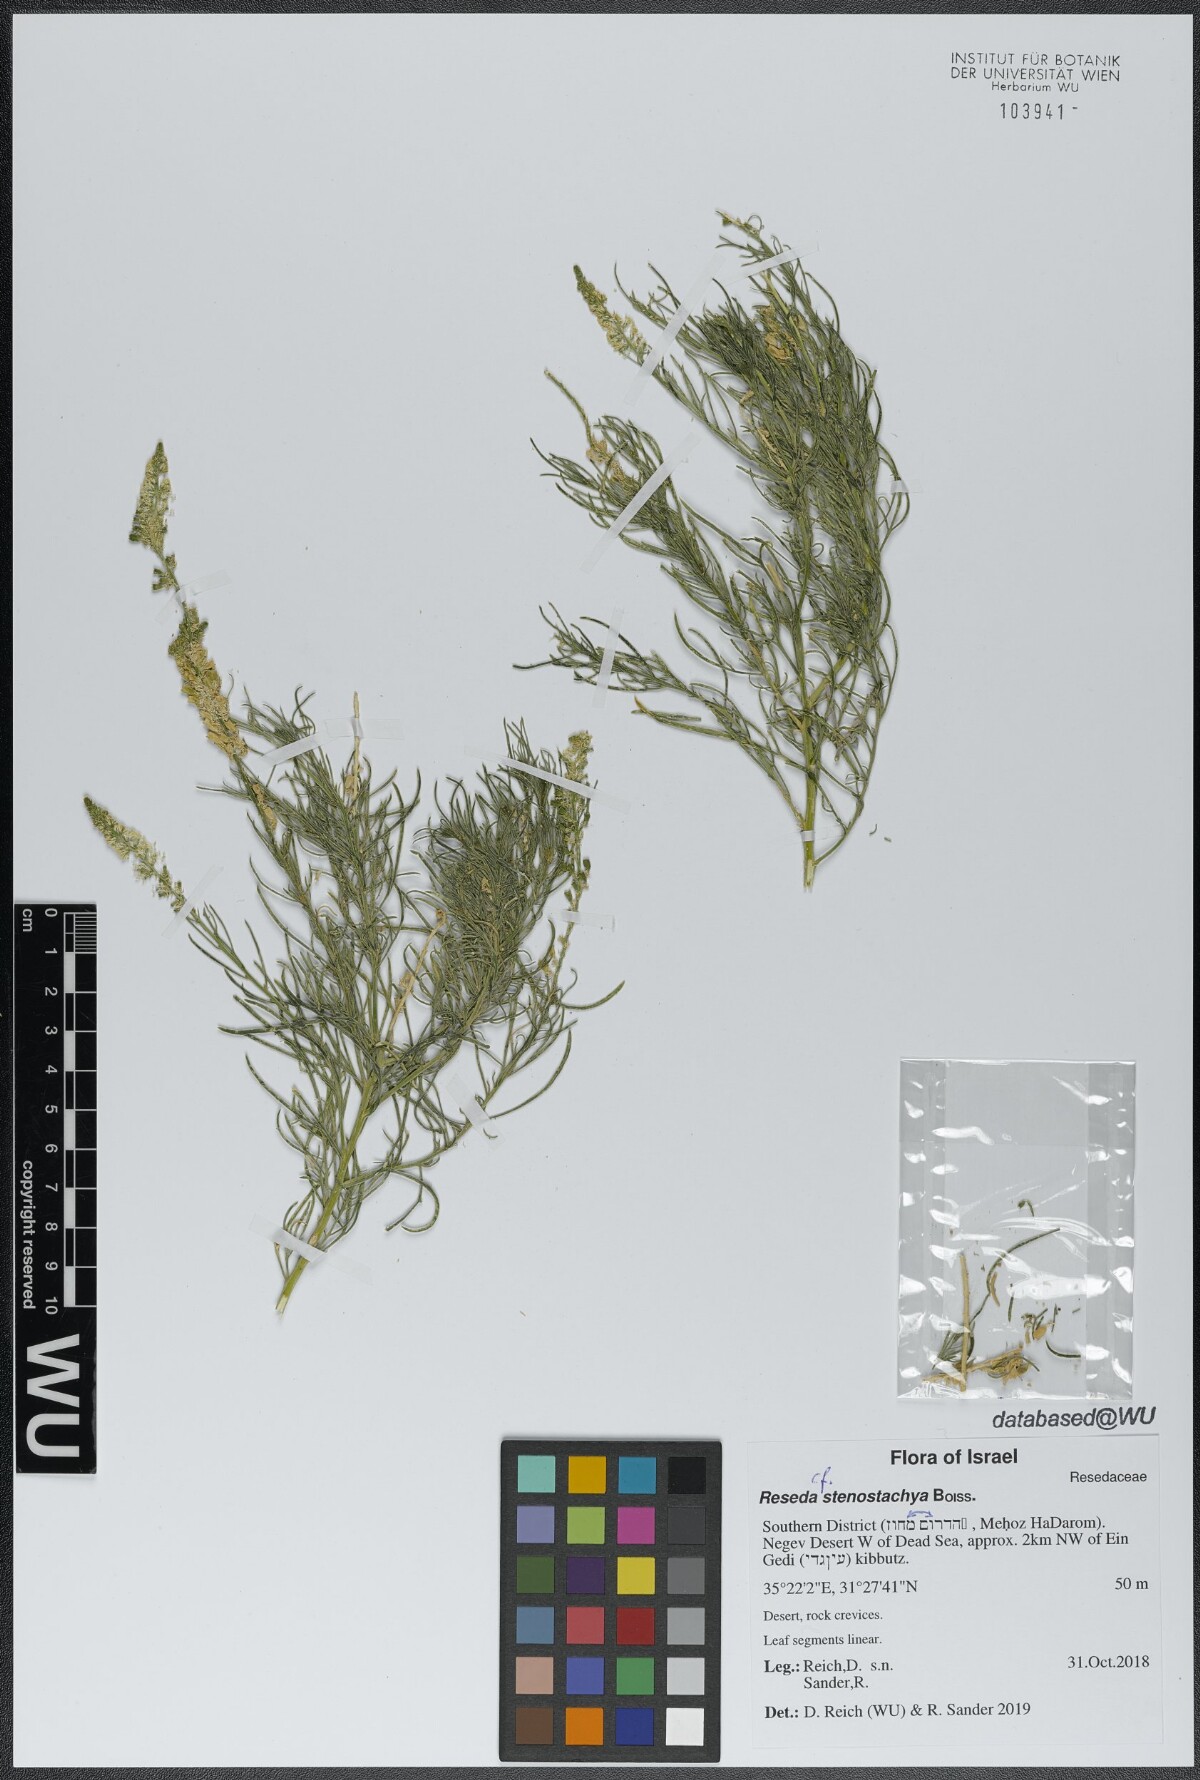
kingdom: Plantae
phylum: Tracheophyta
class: Magnoliopsida
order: Brassicales
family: Resedaceae
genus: Reseda
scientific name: Reseda stenostachya
